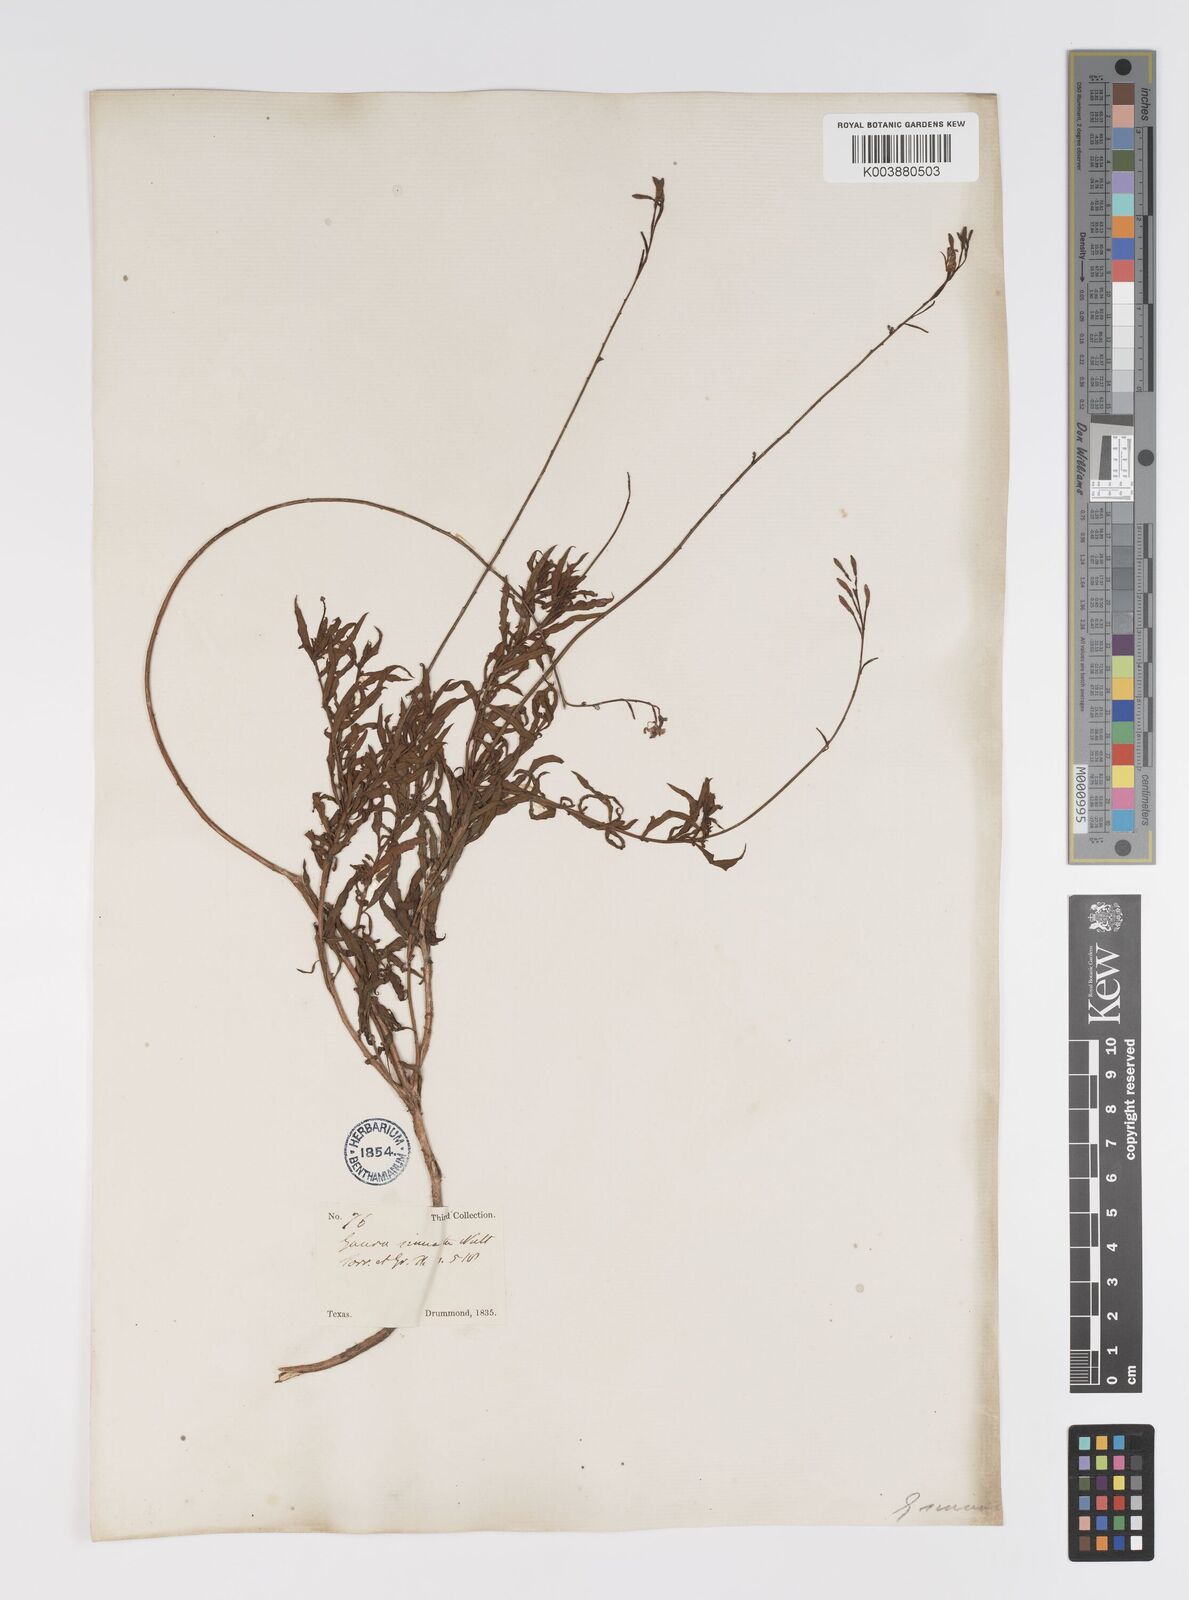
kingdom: Plantae
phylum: Tracheophyta
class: Magnoliopsida
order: Myrtales
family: Onagraceae
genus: Oenothera
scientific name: Oenothera sinuosa
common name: Wavyleaf beeblossom
